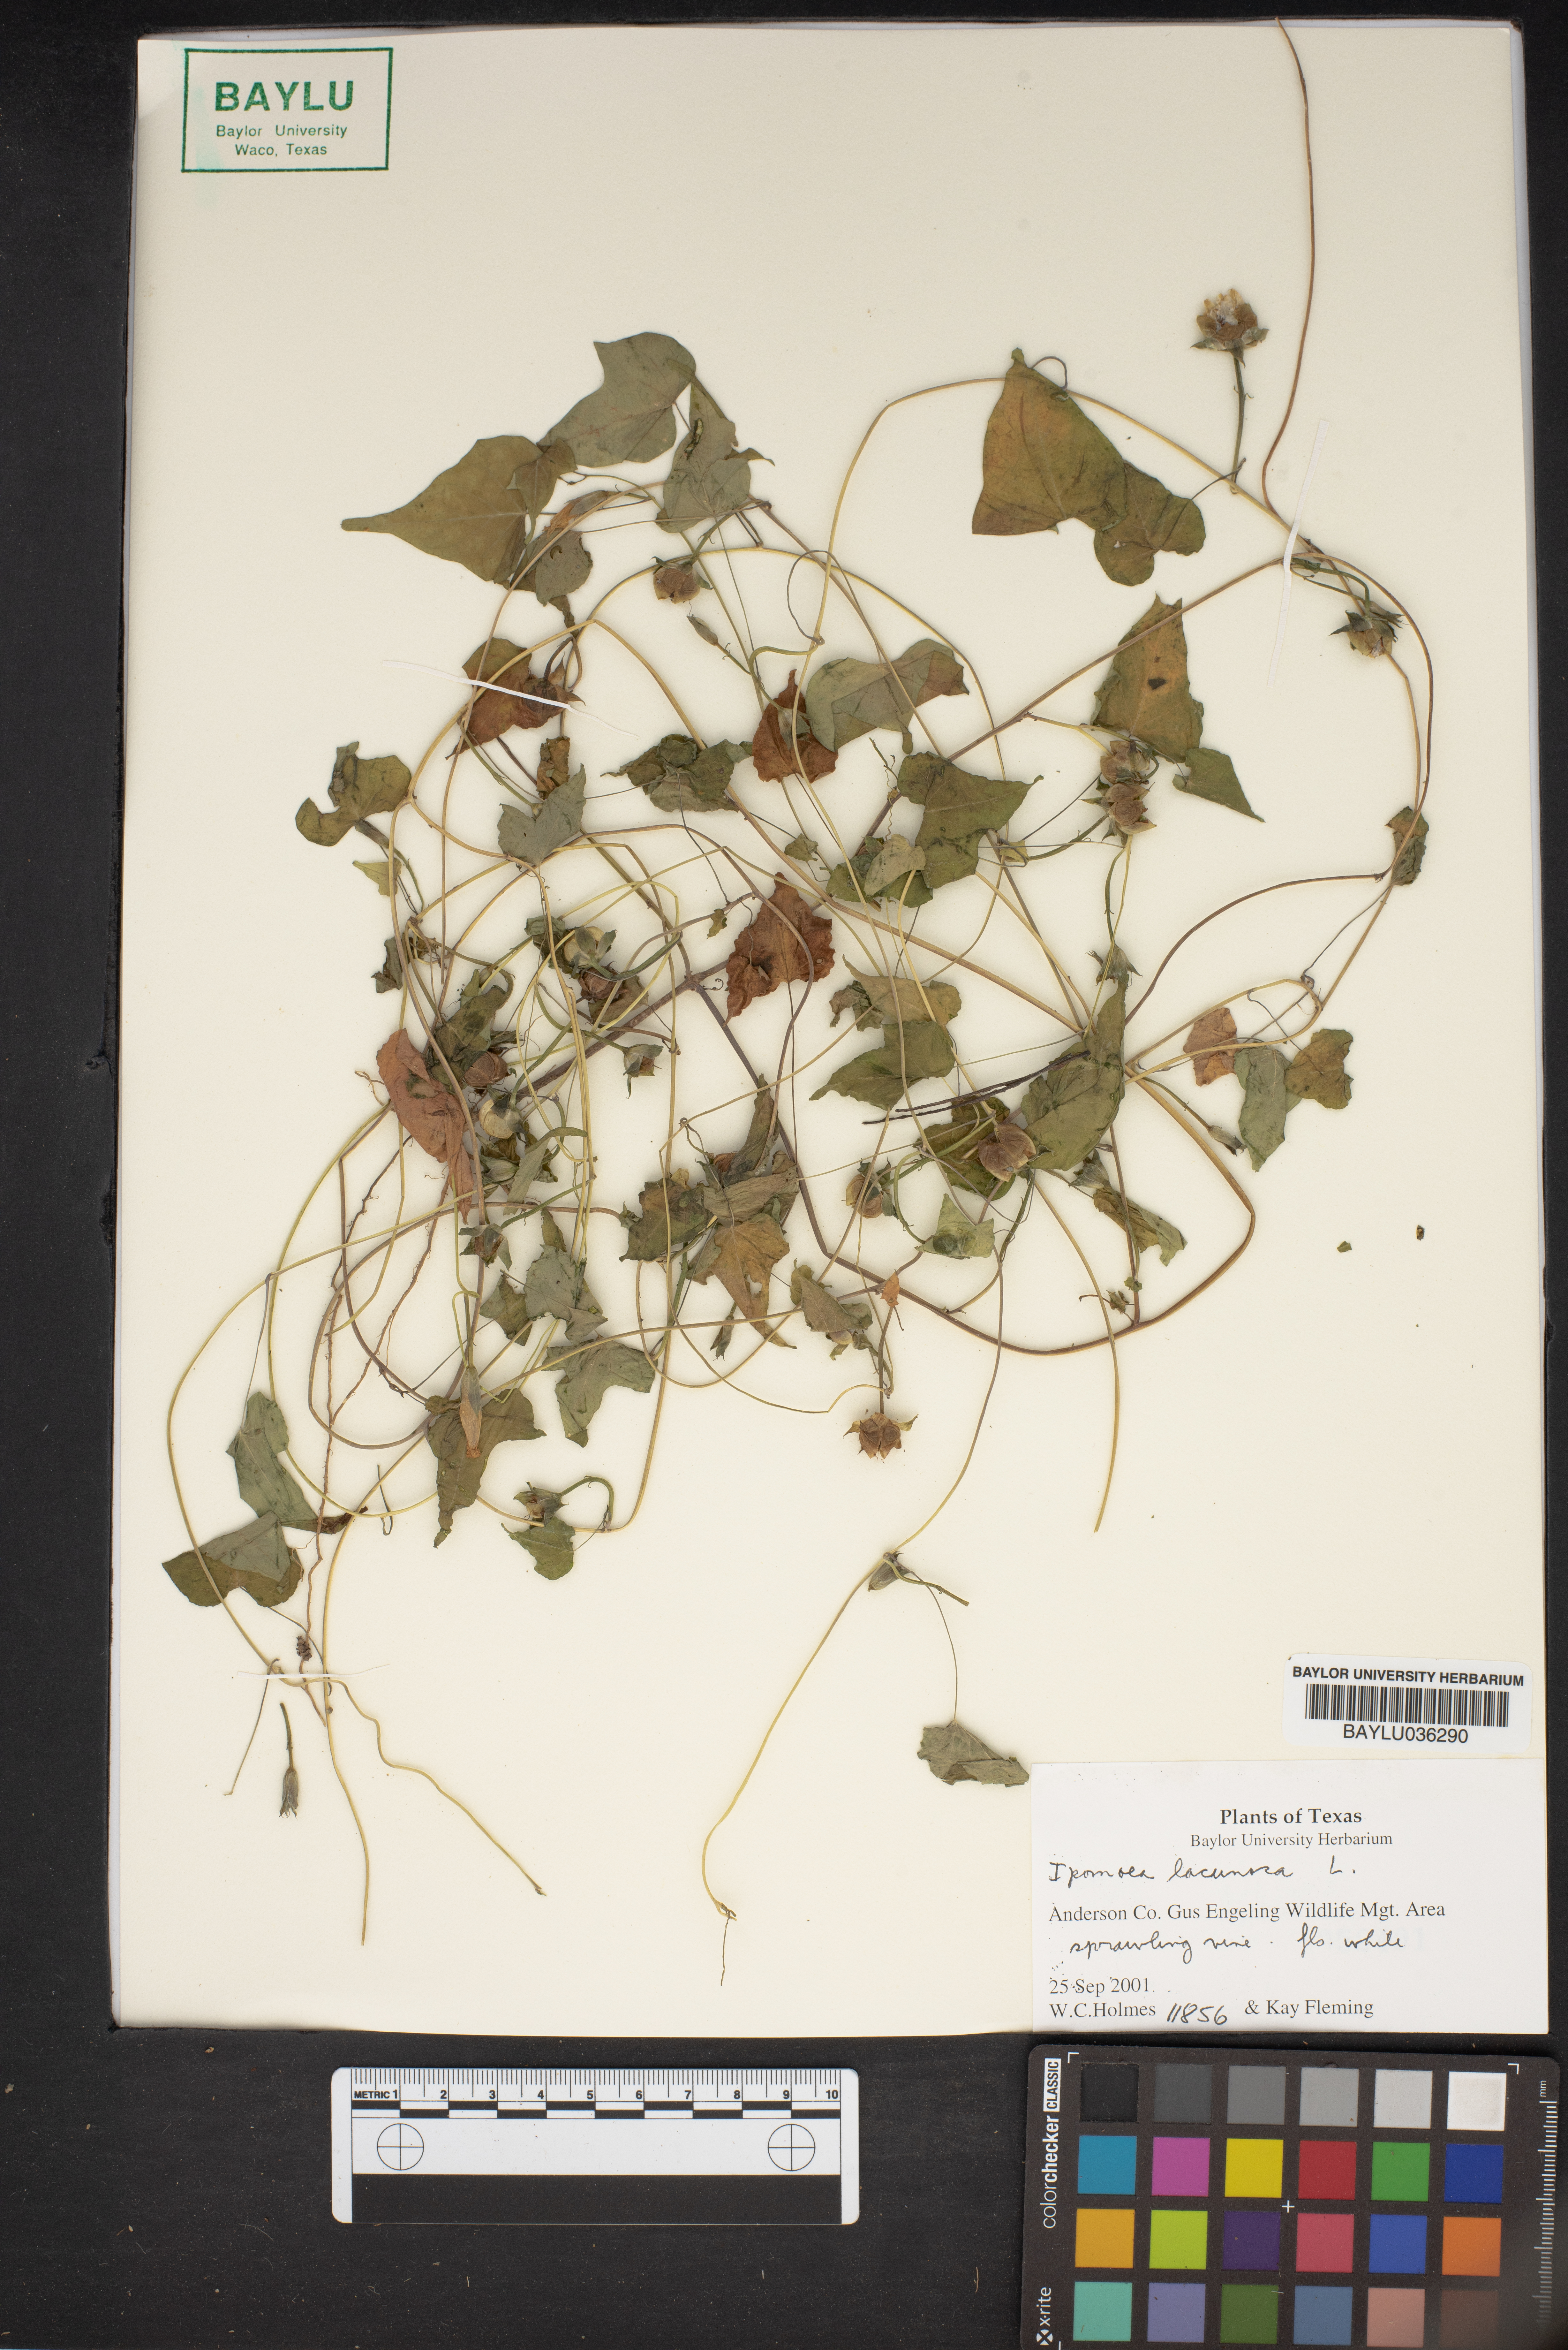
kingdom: Plantae
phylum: Tracheophyta
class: Magnoliopsida
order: Solanales
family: Convolvulaceae
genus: Ipomoea
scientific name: Ipomoea lacunosa
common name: White morning-glory
